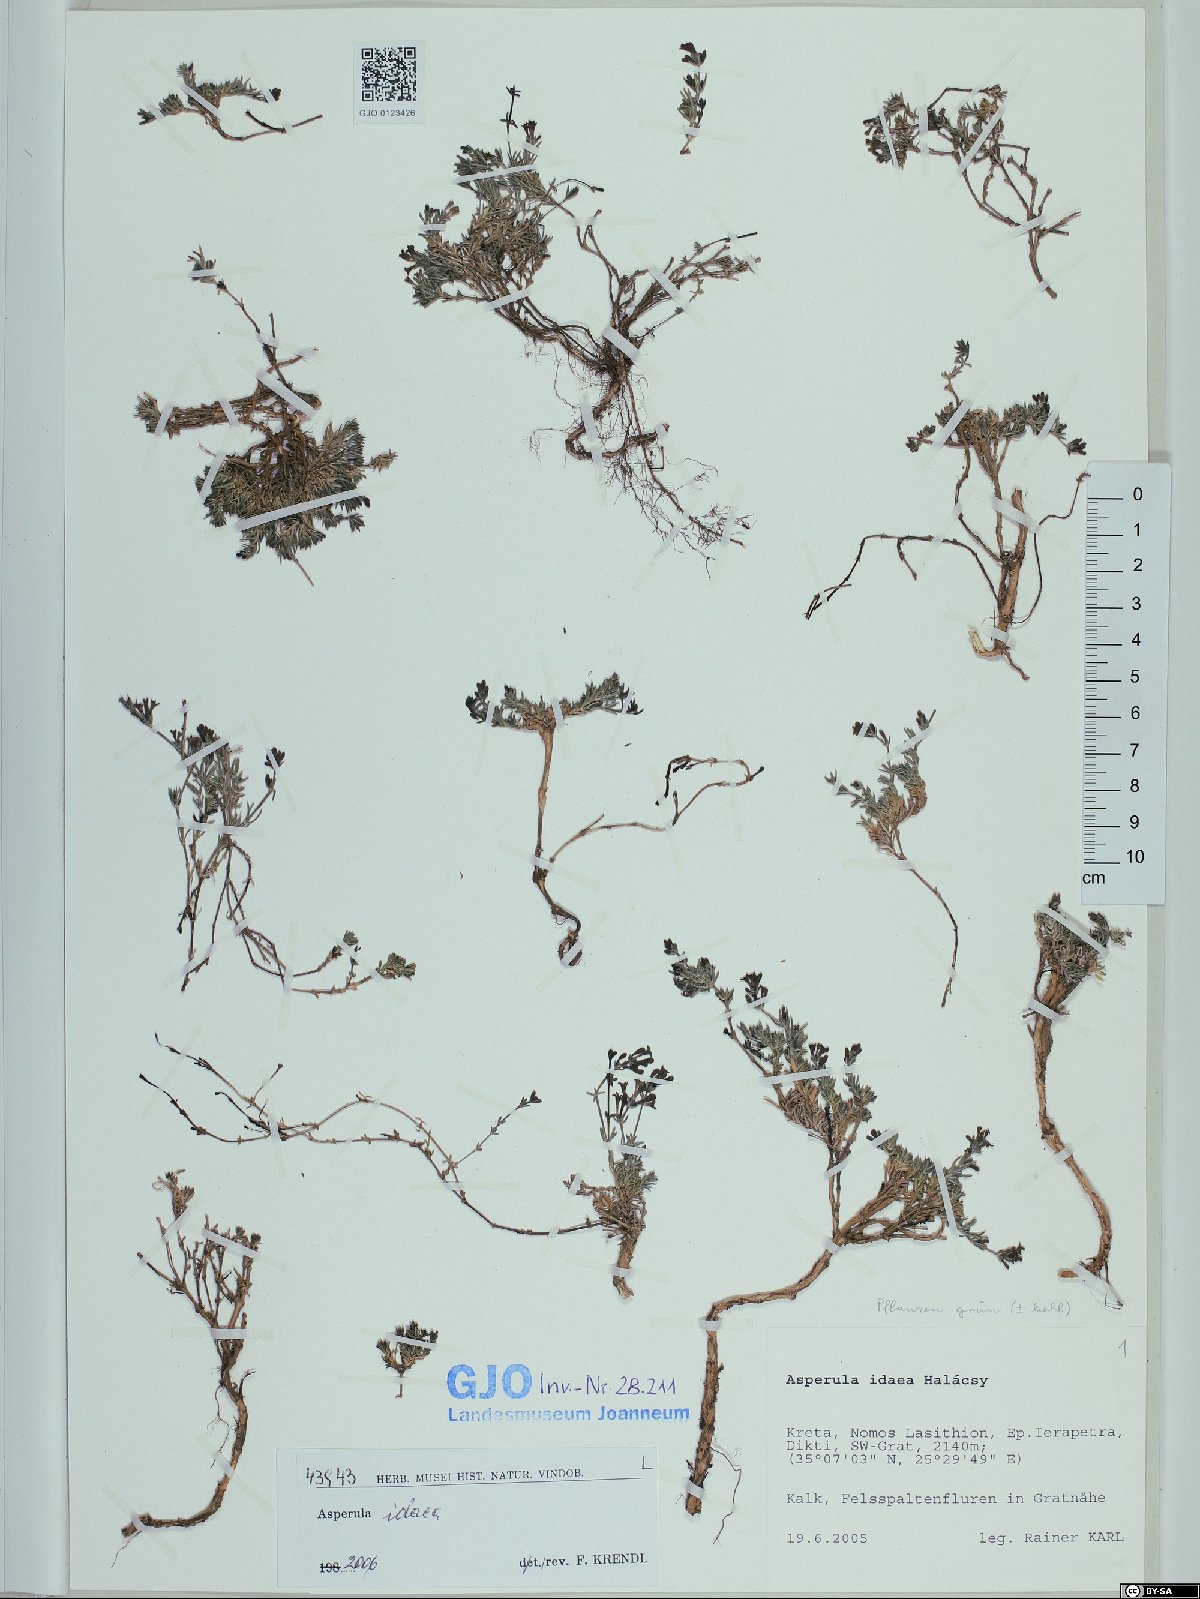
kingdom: Plantae
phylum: Tracheophyta
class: Magnoliopsida
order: Gentianales
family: Rubiaceae
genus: Cynanchica
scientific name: Cynanchica idaea
